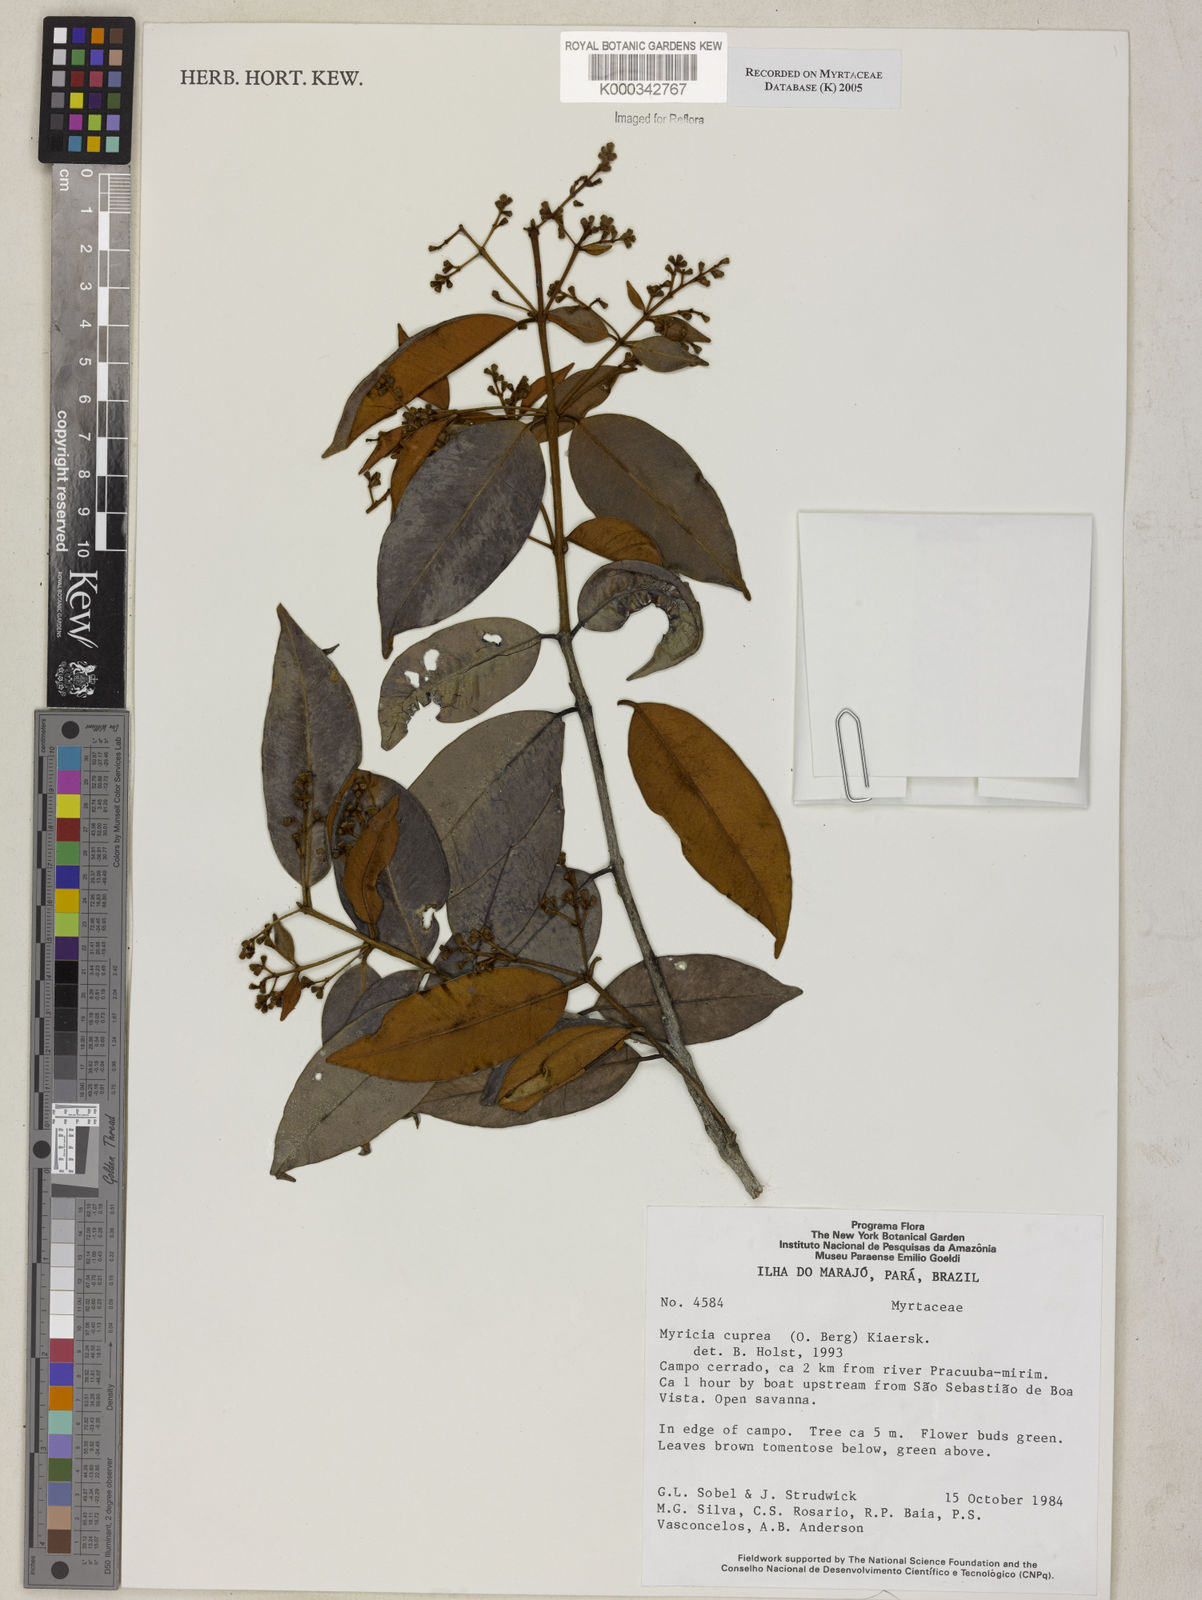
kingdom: Plantae
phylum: Tracheophyta
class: Magnoliopsida
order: Myrtales
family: Myrtaceae
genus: Myrcia
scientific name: Myrcia cuprea
